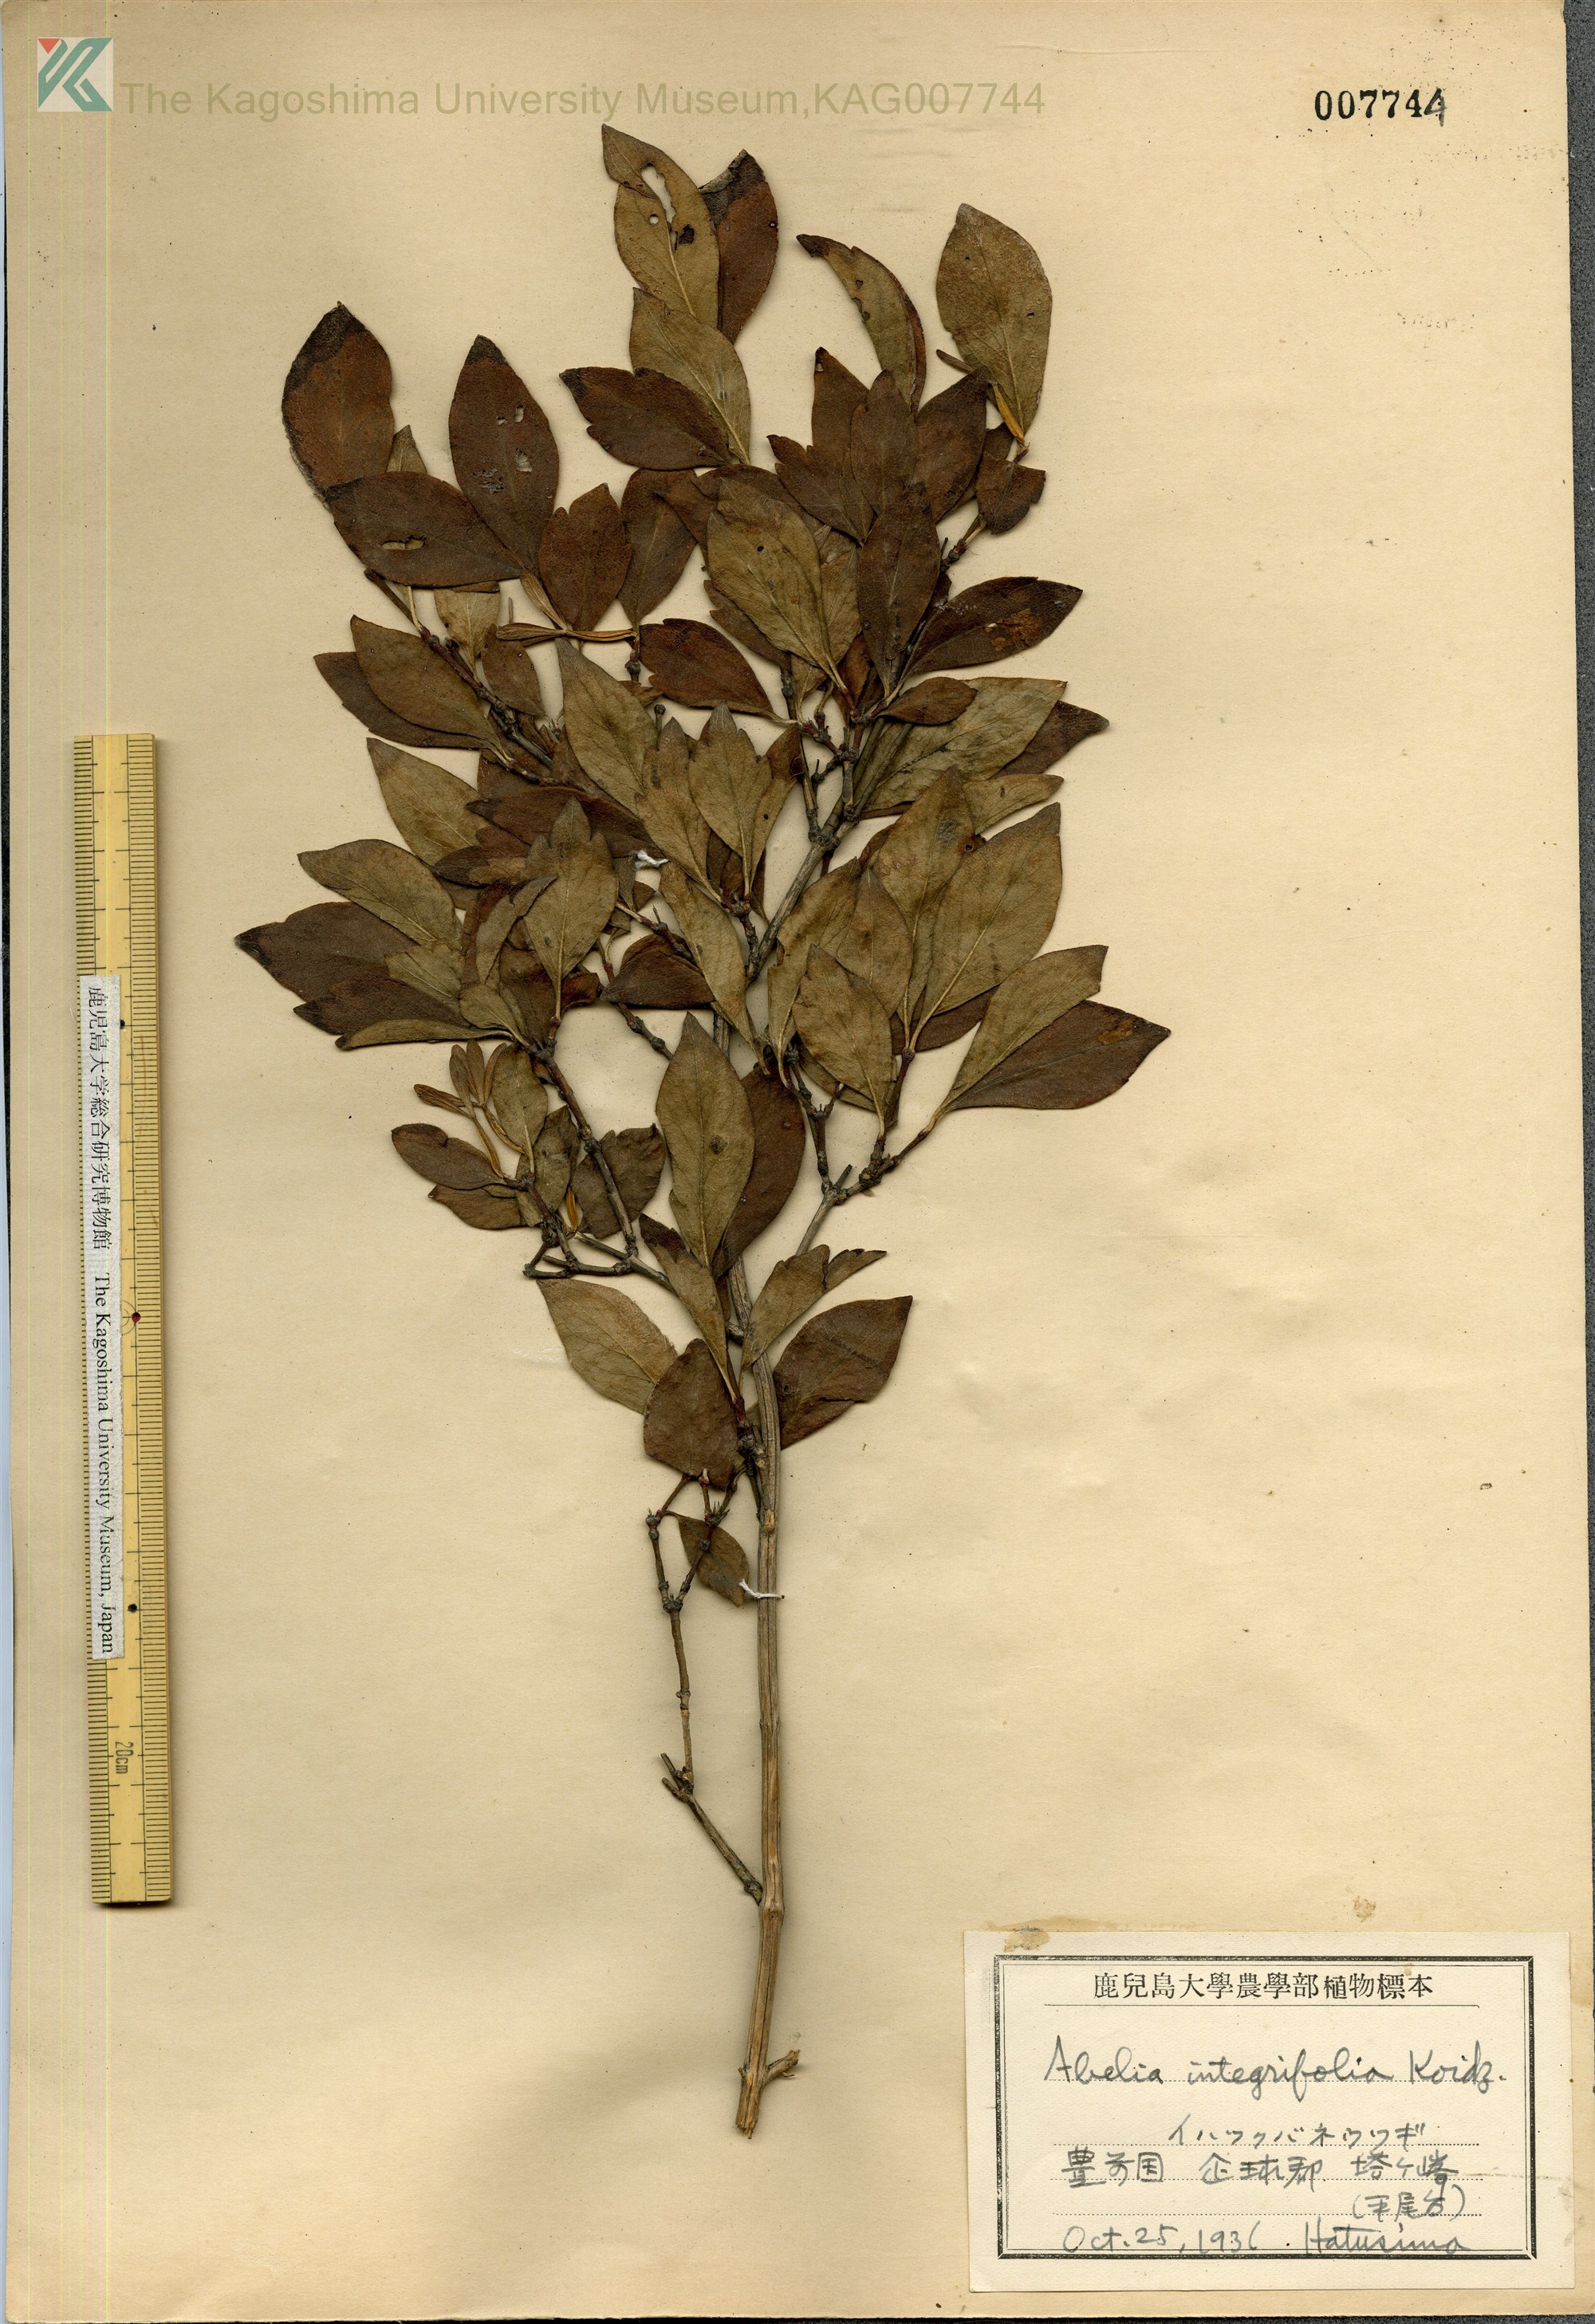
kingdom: Plantae
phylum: Tracheophyta
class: Magnoliopsida
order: Dipsacales
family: Caprifoliaceae
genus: Zabelia
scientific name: Zabelia integrifolia
